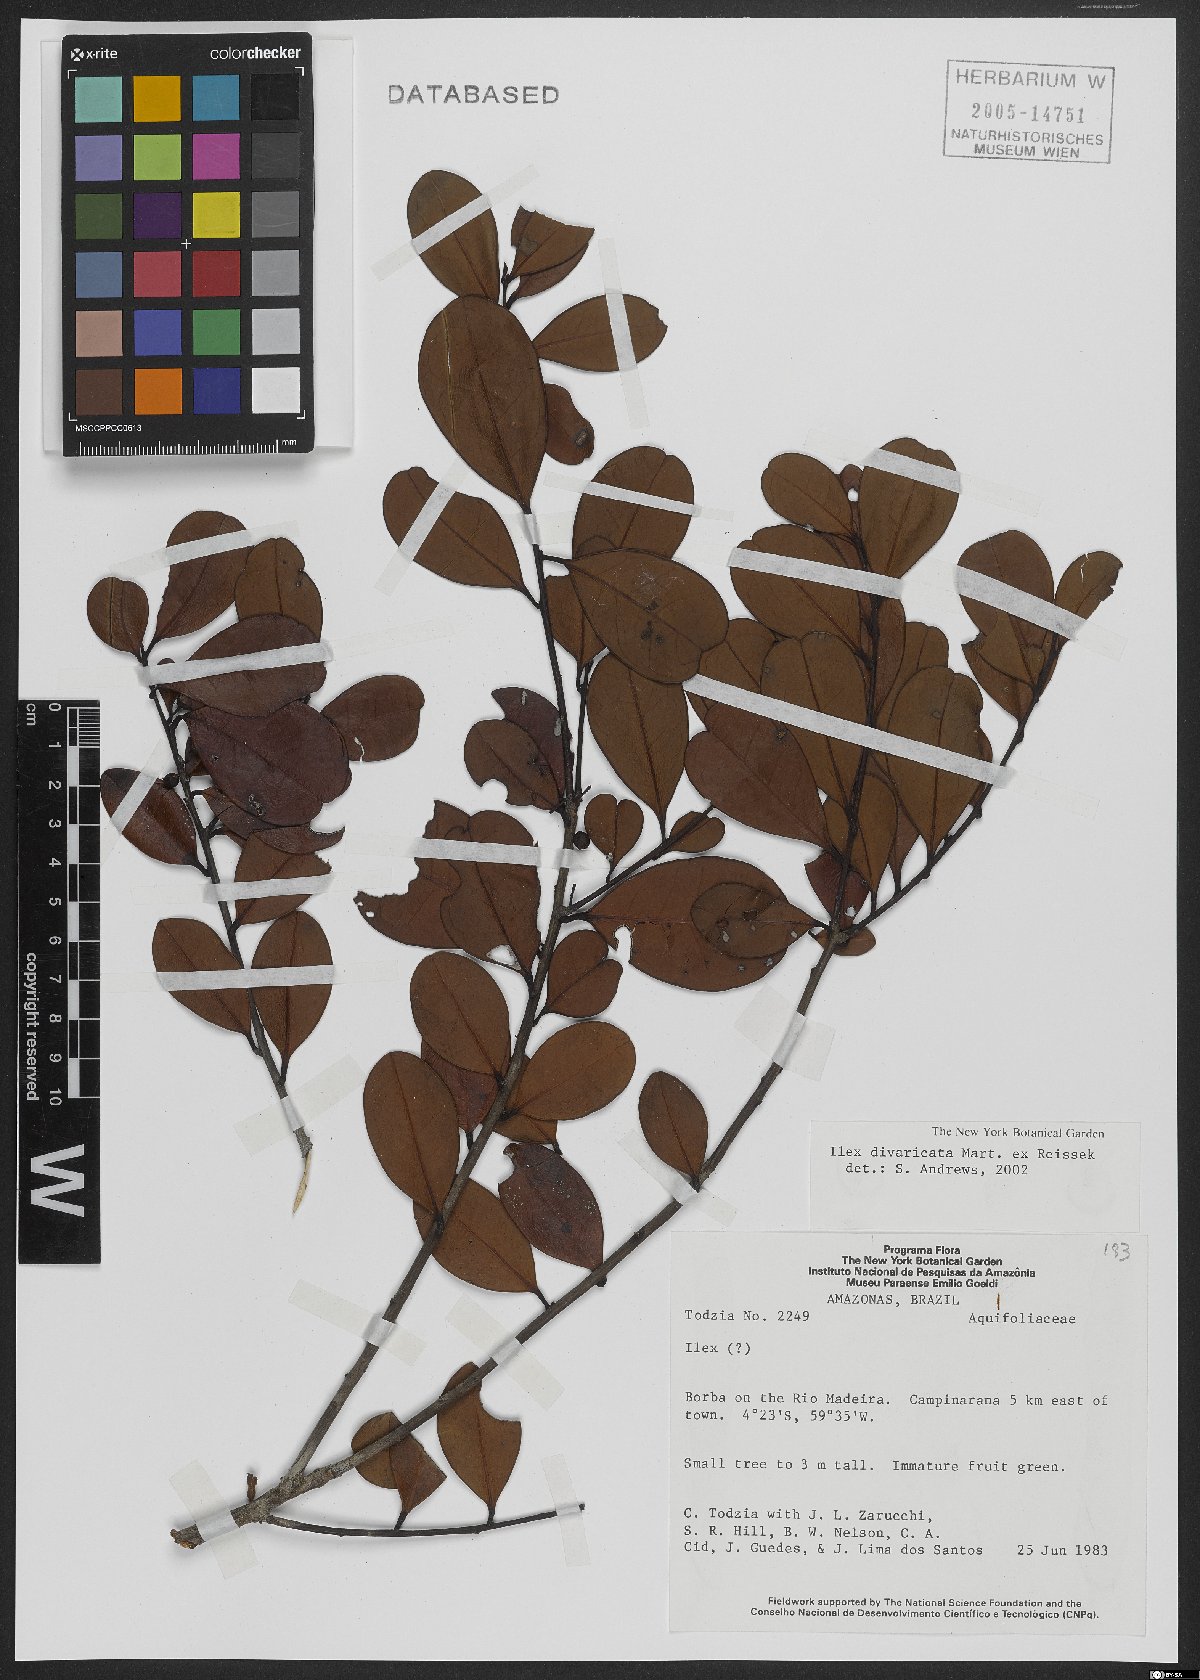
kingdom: Plantae
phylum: Tracheophyta
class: Magnoliopsida
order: Aquifoliales
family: Aquifoliaceae
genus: Ilex
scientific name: Ilex divaricata
